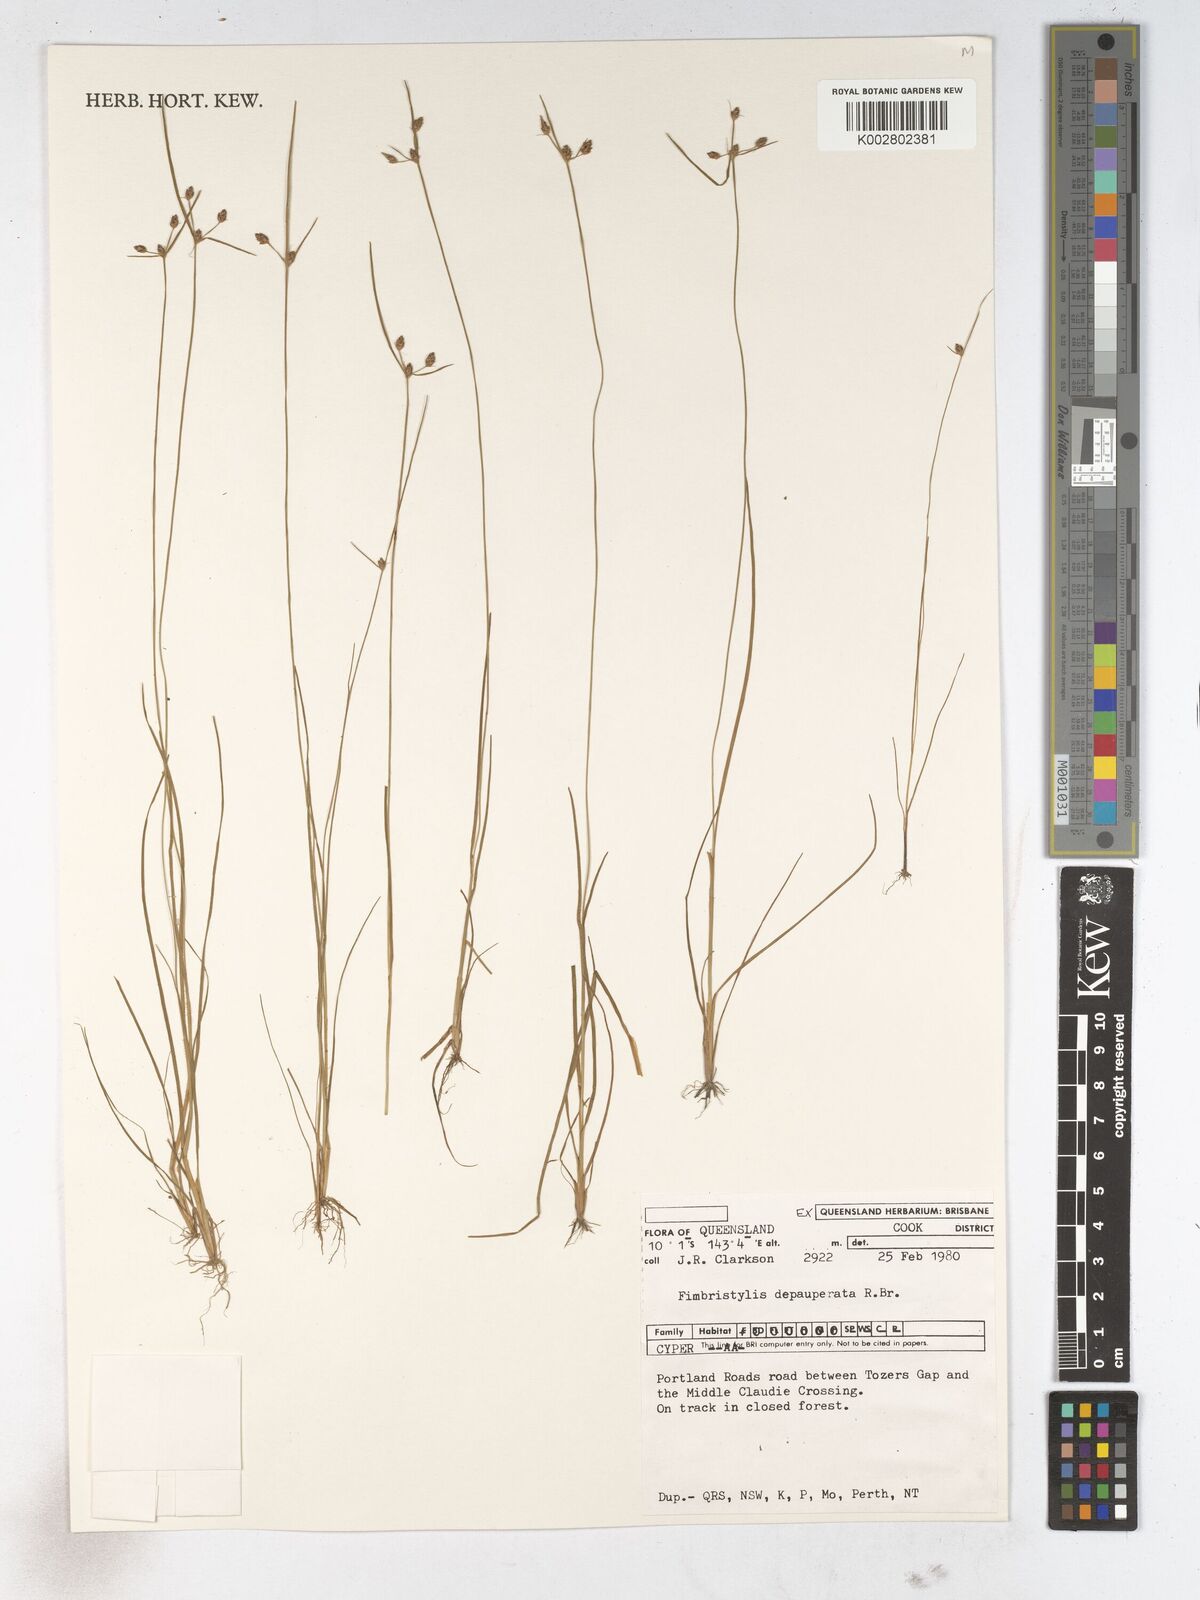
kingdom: Plantae
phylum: Tracheophyta
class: Liliopsida
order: Poales
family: Cyperaceae
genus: Fimbristylis
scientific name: Fimbristylis dichotoma
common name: Forked fimbry
